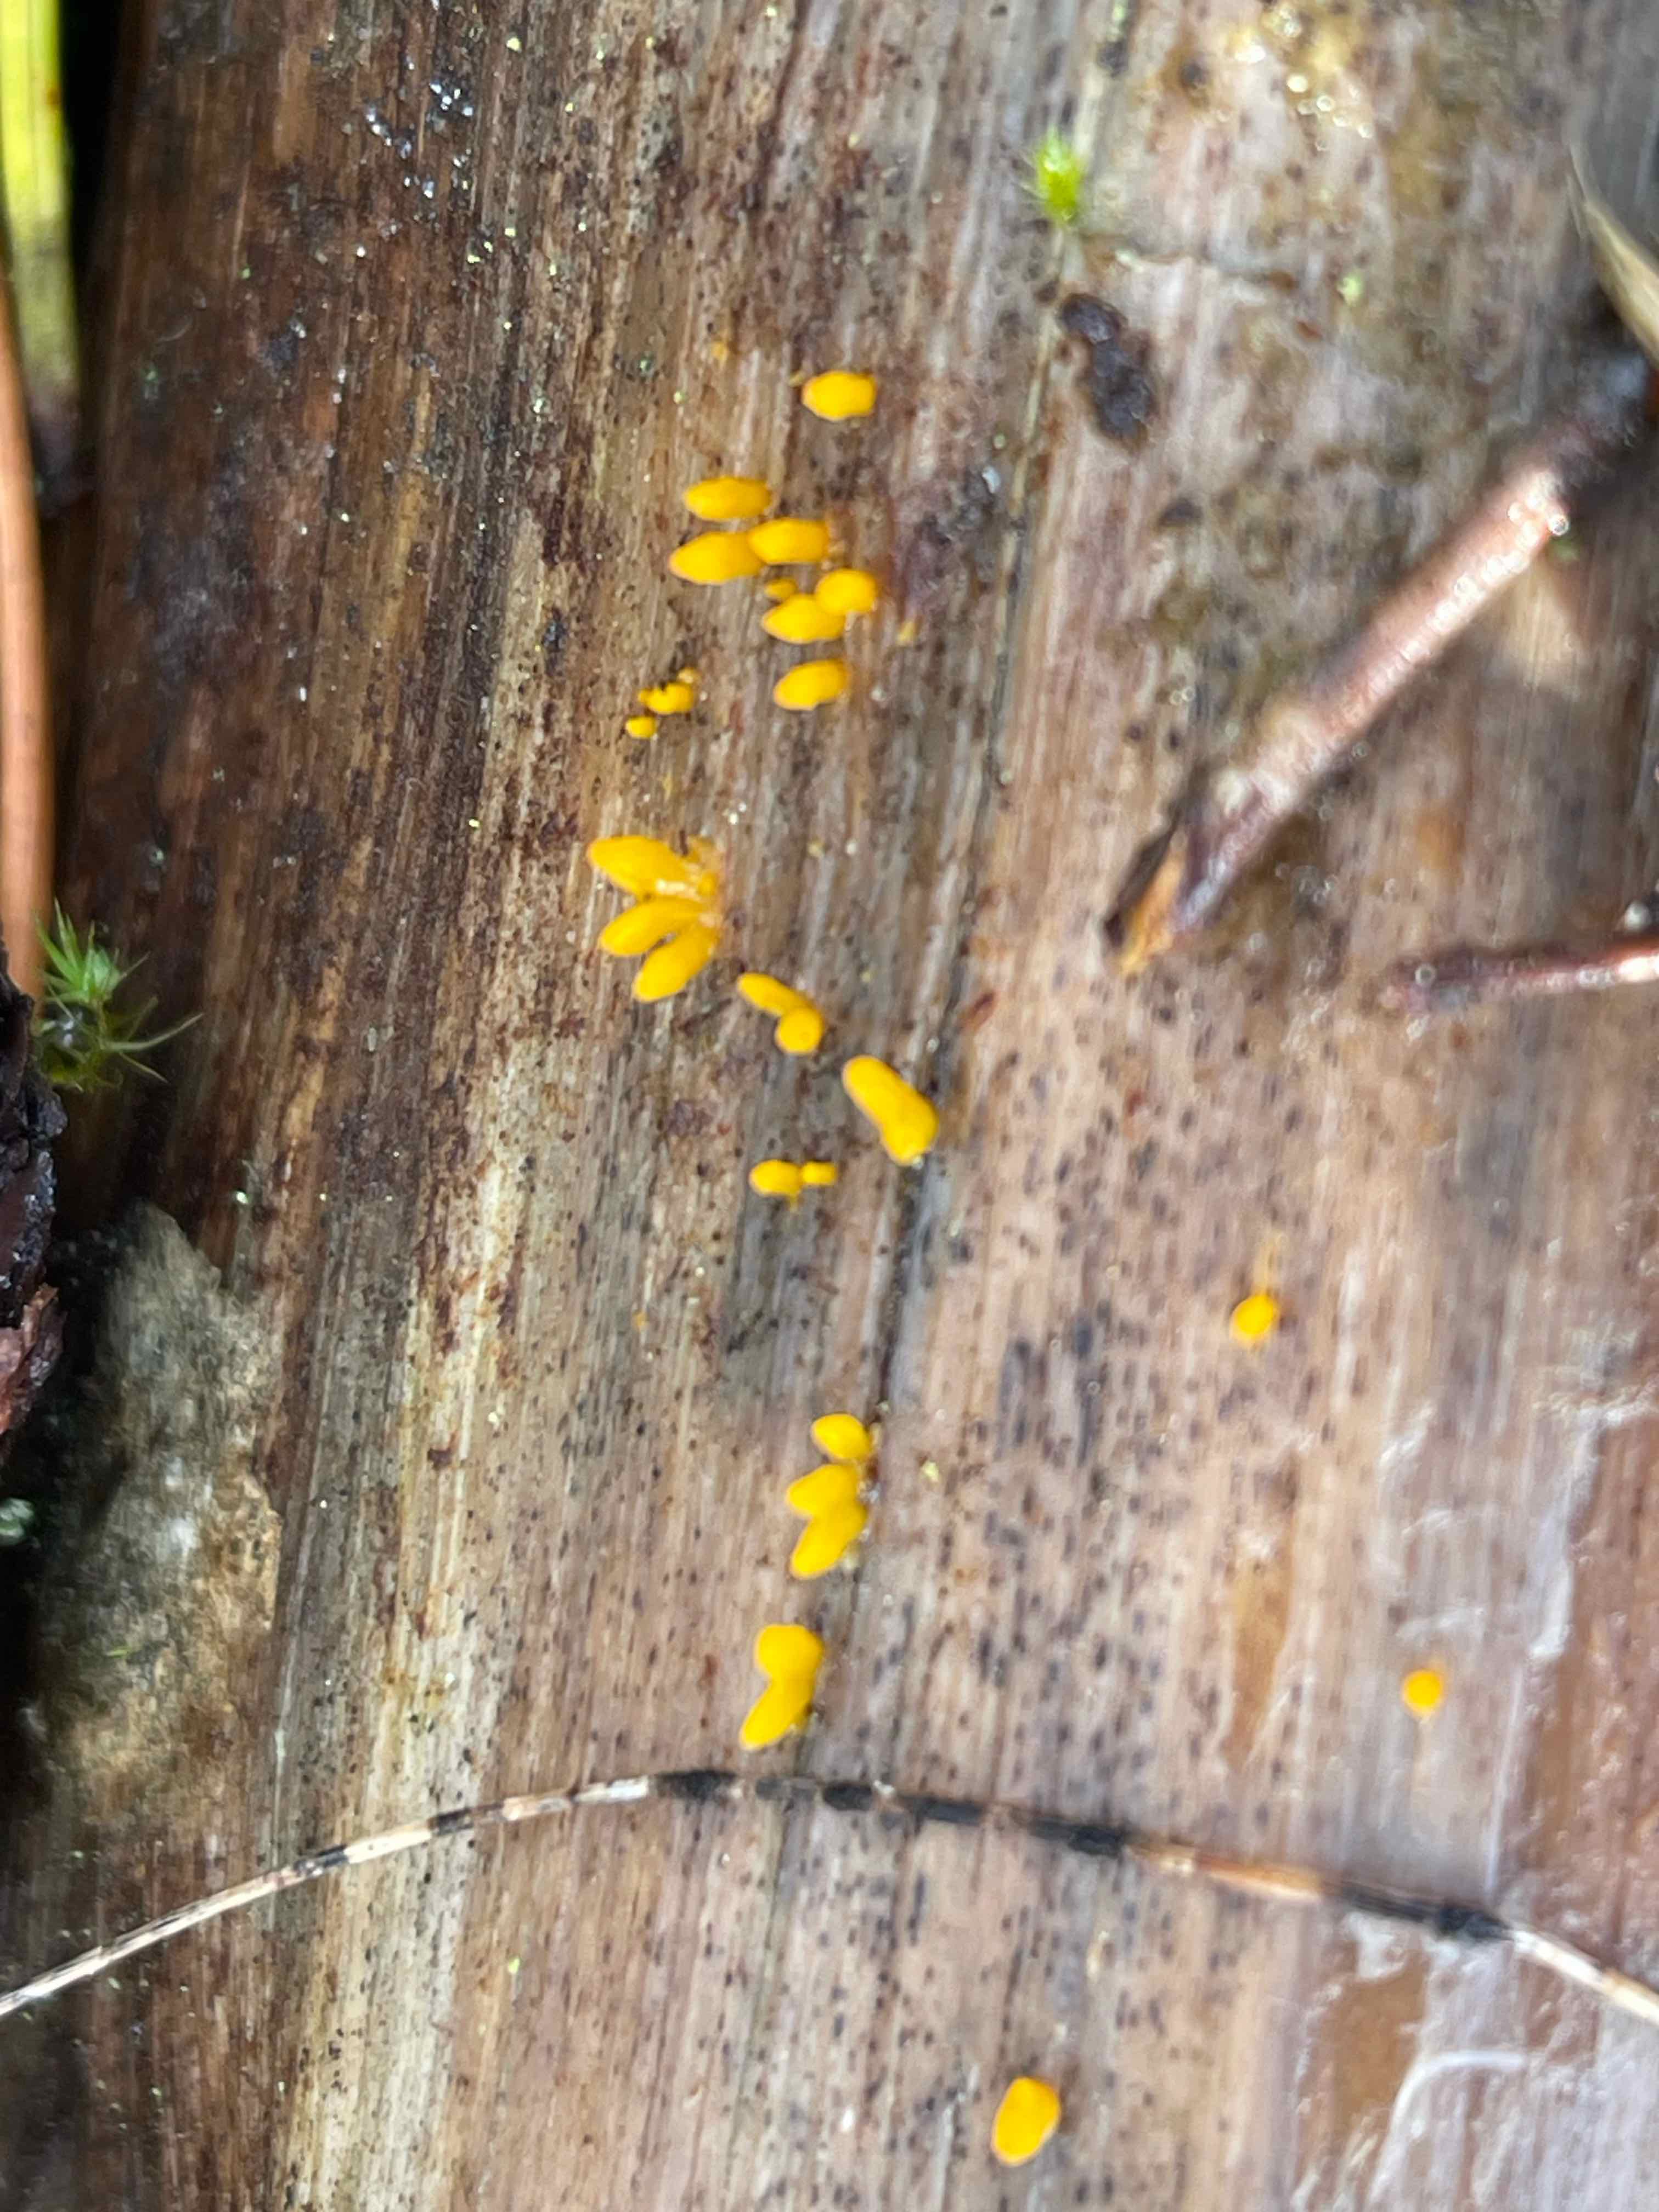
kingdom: Fungi
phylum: Basidiomycota
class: Dacrymycetes
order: Dacrymycetales
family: Dacrymycetaceae
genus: Calocera
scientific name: Calocera
